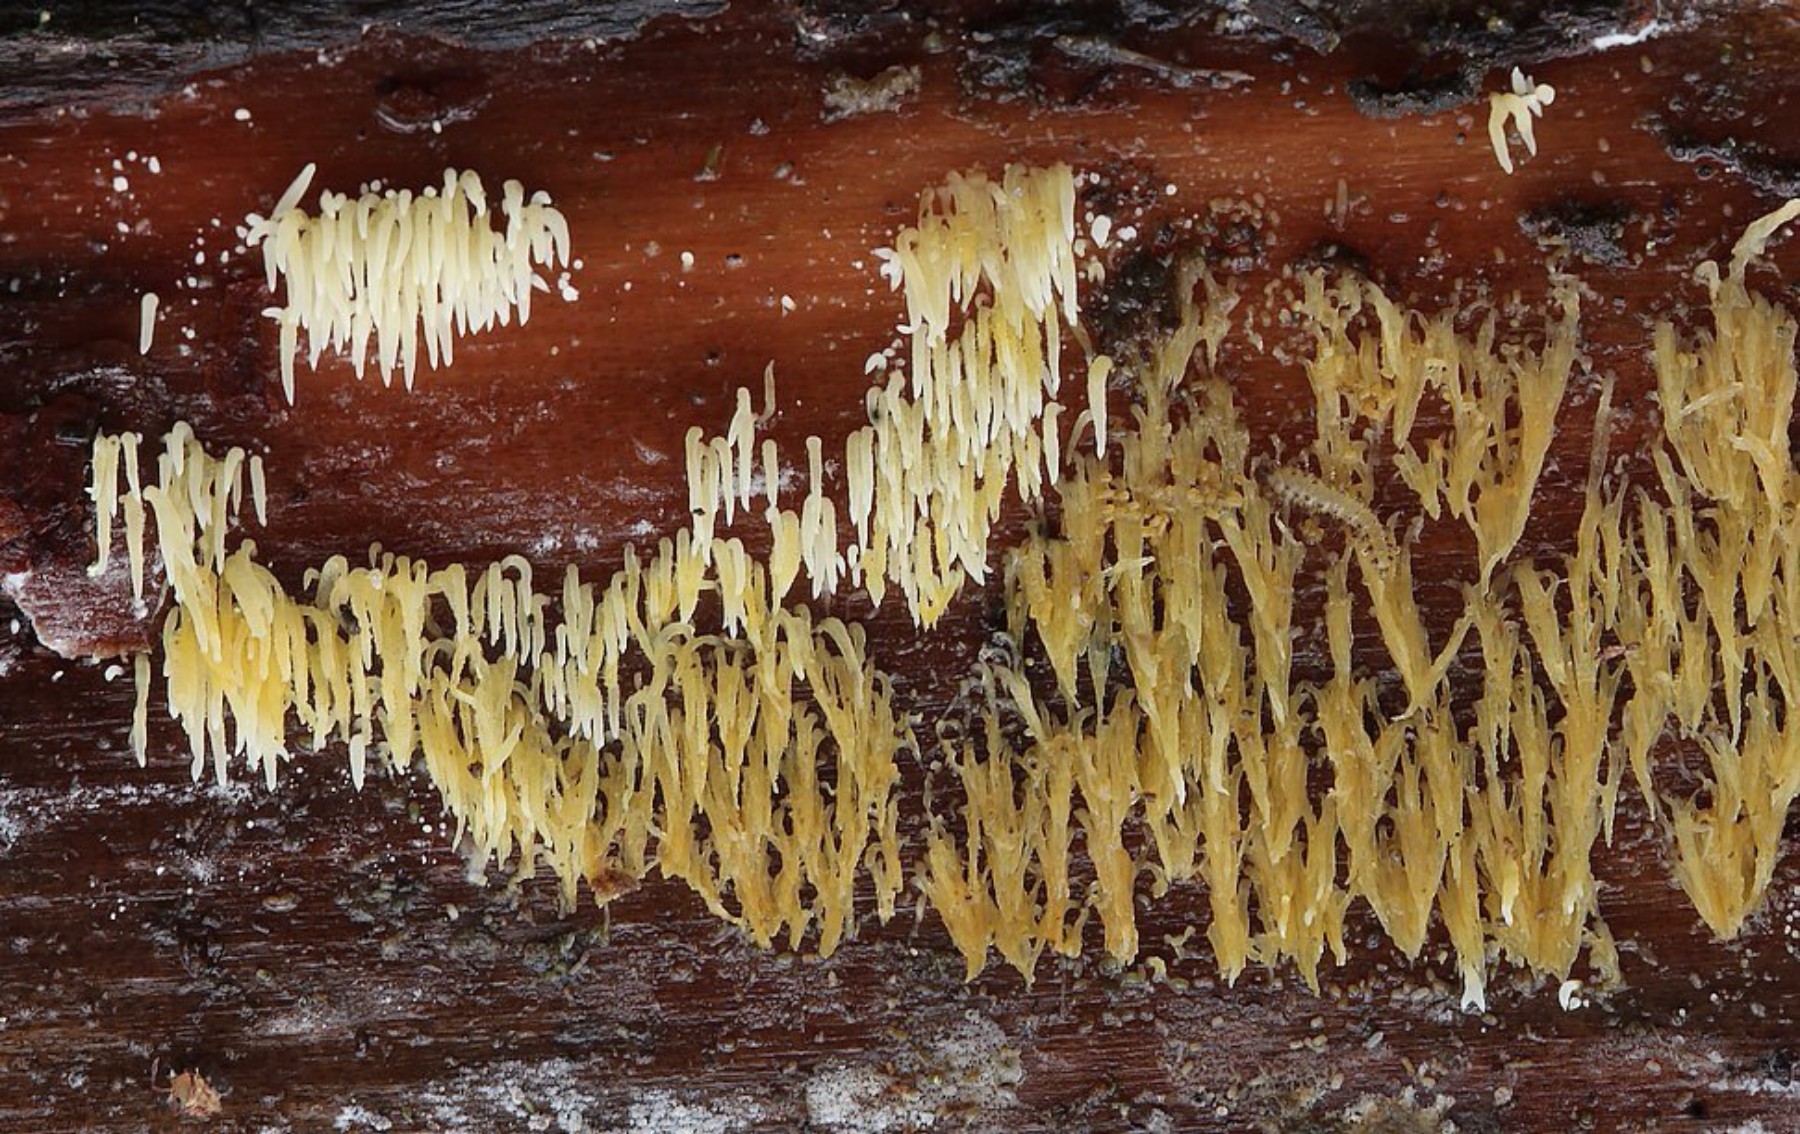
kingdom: Fungi
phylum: Basidiomycota
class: Agaricomycetes
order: Agaricales
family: Clavariaceae
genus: Mucronella
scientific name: Mucronella flava
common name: gul hængepig
